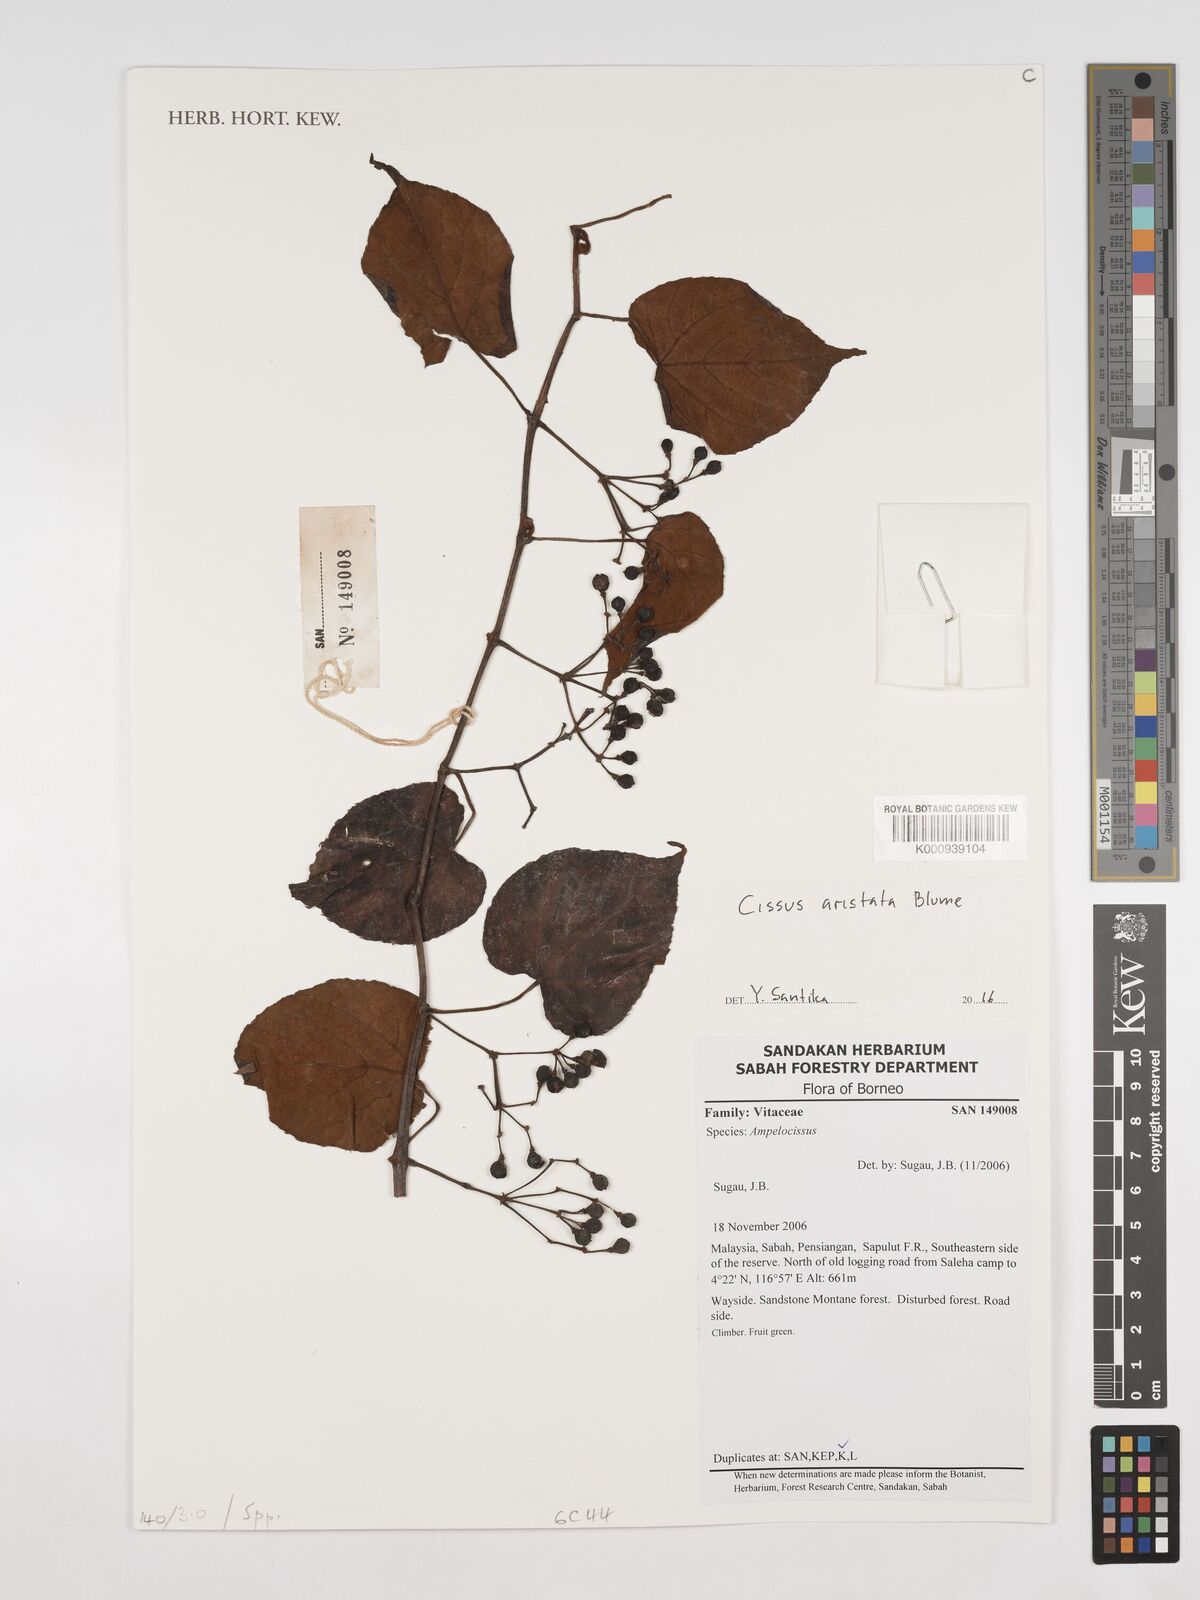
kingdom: Plantae
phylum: Tracheophyta
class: Magnoliopsida
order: Vitales
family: Vitaceae
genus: Cissus
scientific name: Cissus aristata
